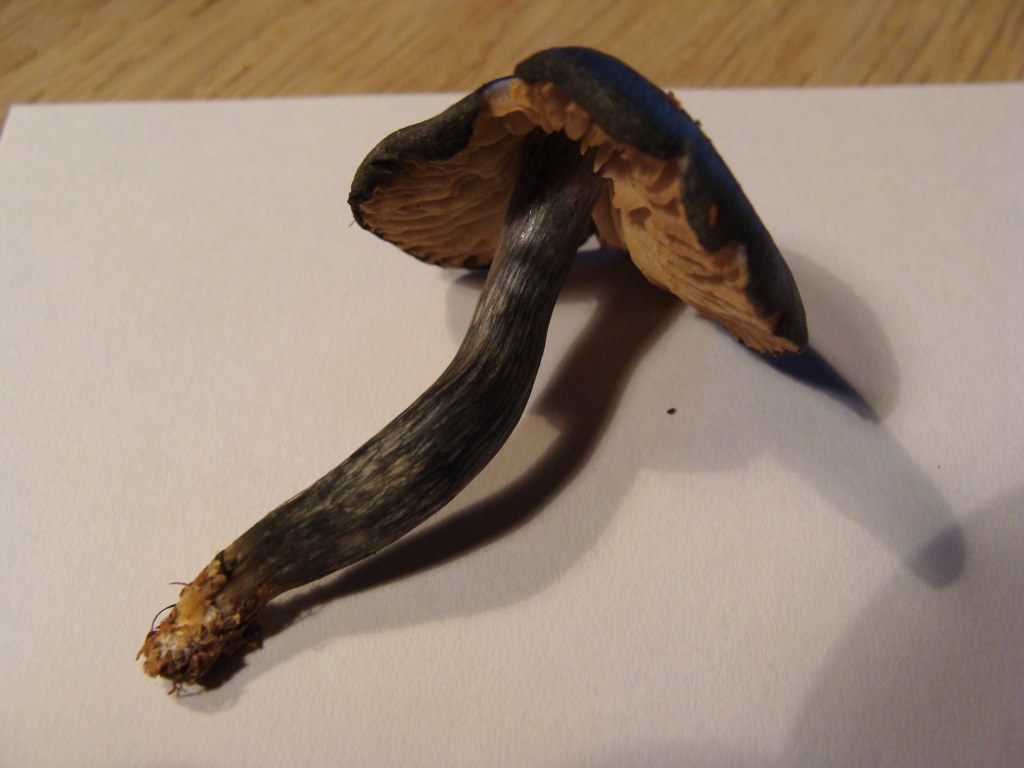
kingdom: Fungi
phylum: Basidiomycota
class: Agaricomycetes
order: Agaricales
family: Entolomataceae
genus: Entocybe
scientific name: Entocybe nitida
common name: stålblå rødblad
